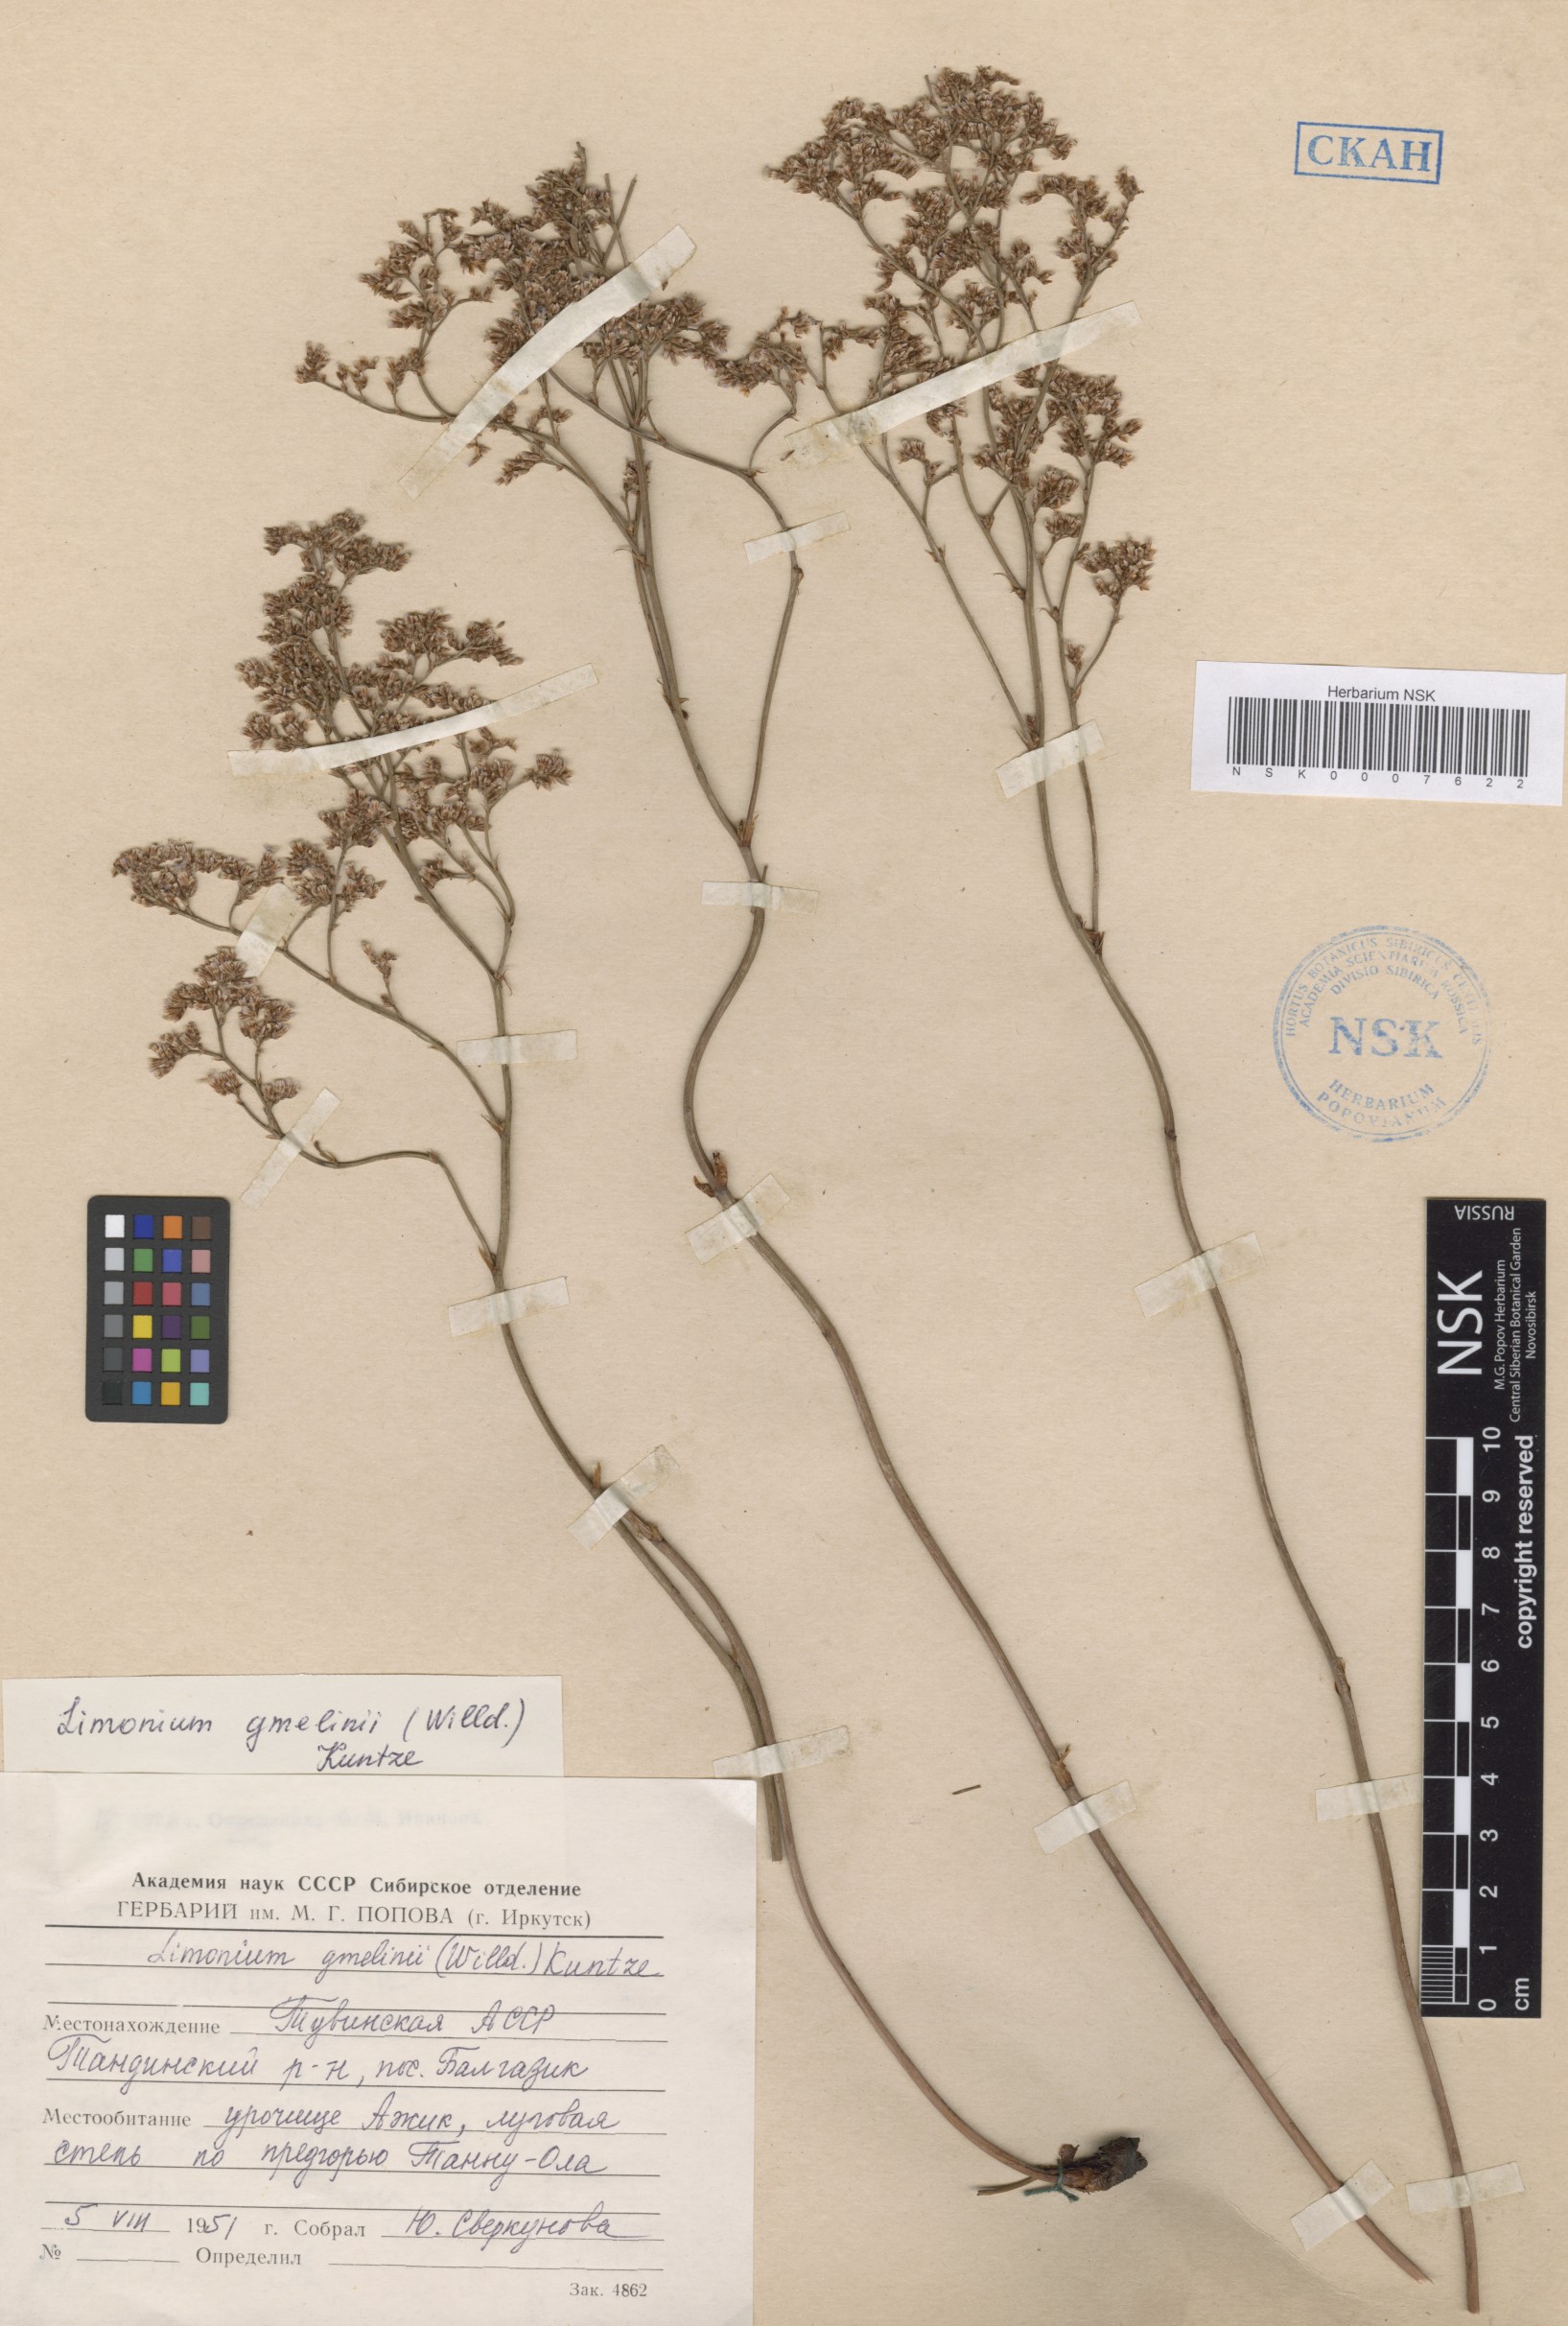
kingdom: Plantae
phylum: Tracheophyta
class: Magnoliopsida
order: Caryophyllales
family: Plumbaginaceae
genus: Limonium
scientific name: Limonium gmelini
